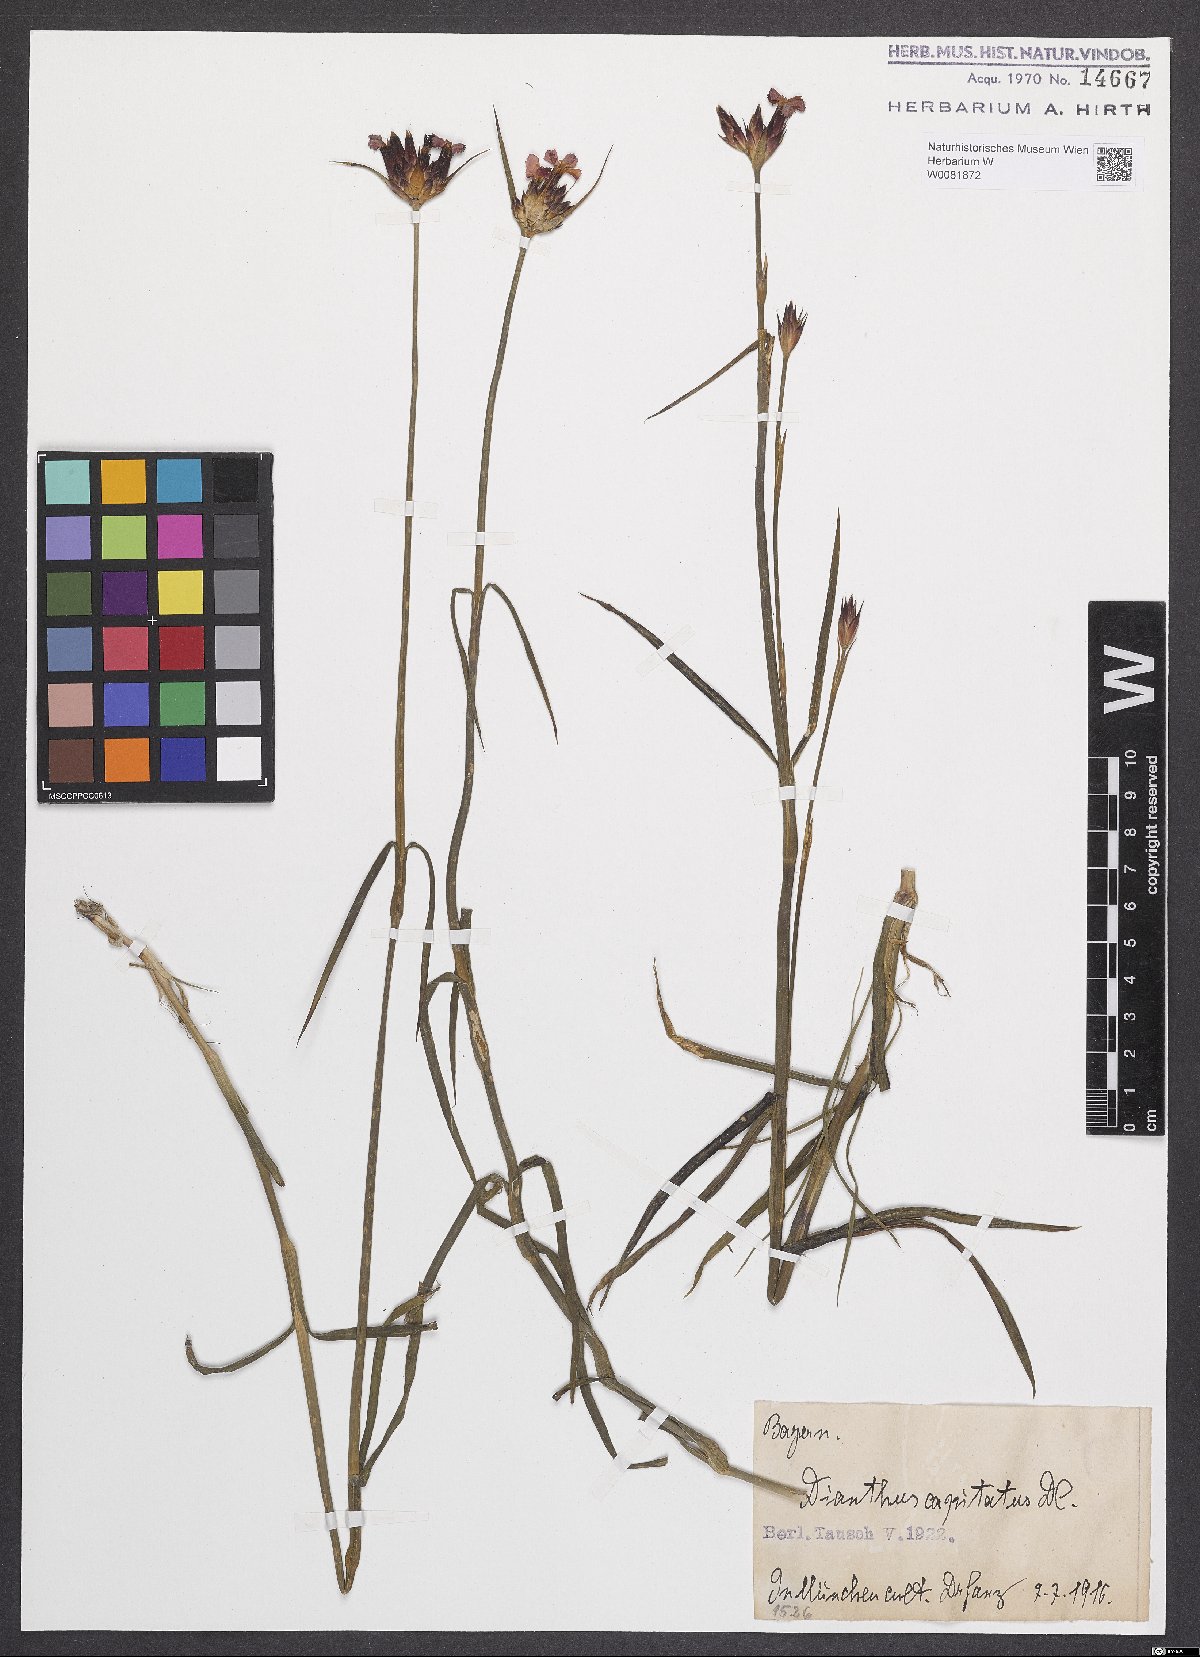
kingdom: Plantae
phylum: Tracheophyta
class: Magnoliopsida
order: Caryophyllales
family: Caryophyllaceae
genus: Dianthus
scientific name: Dianthus capitatus
